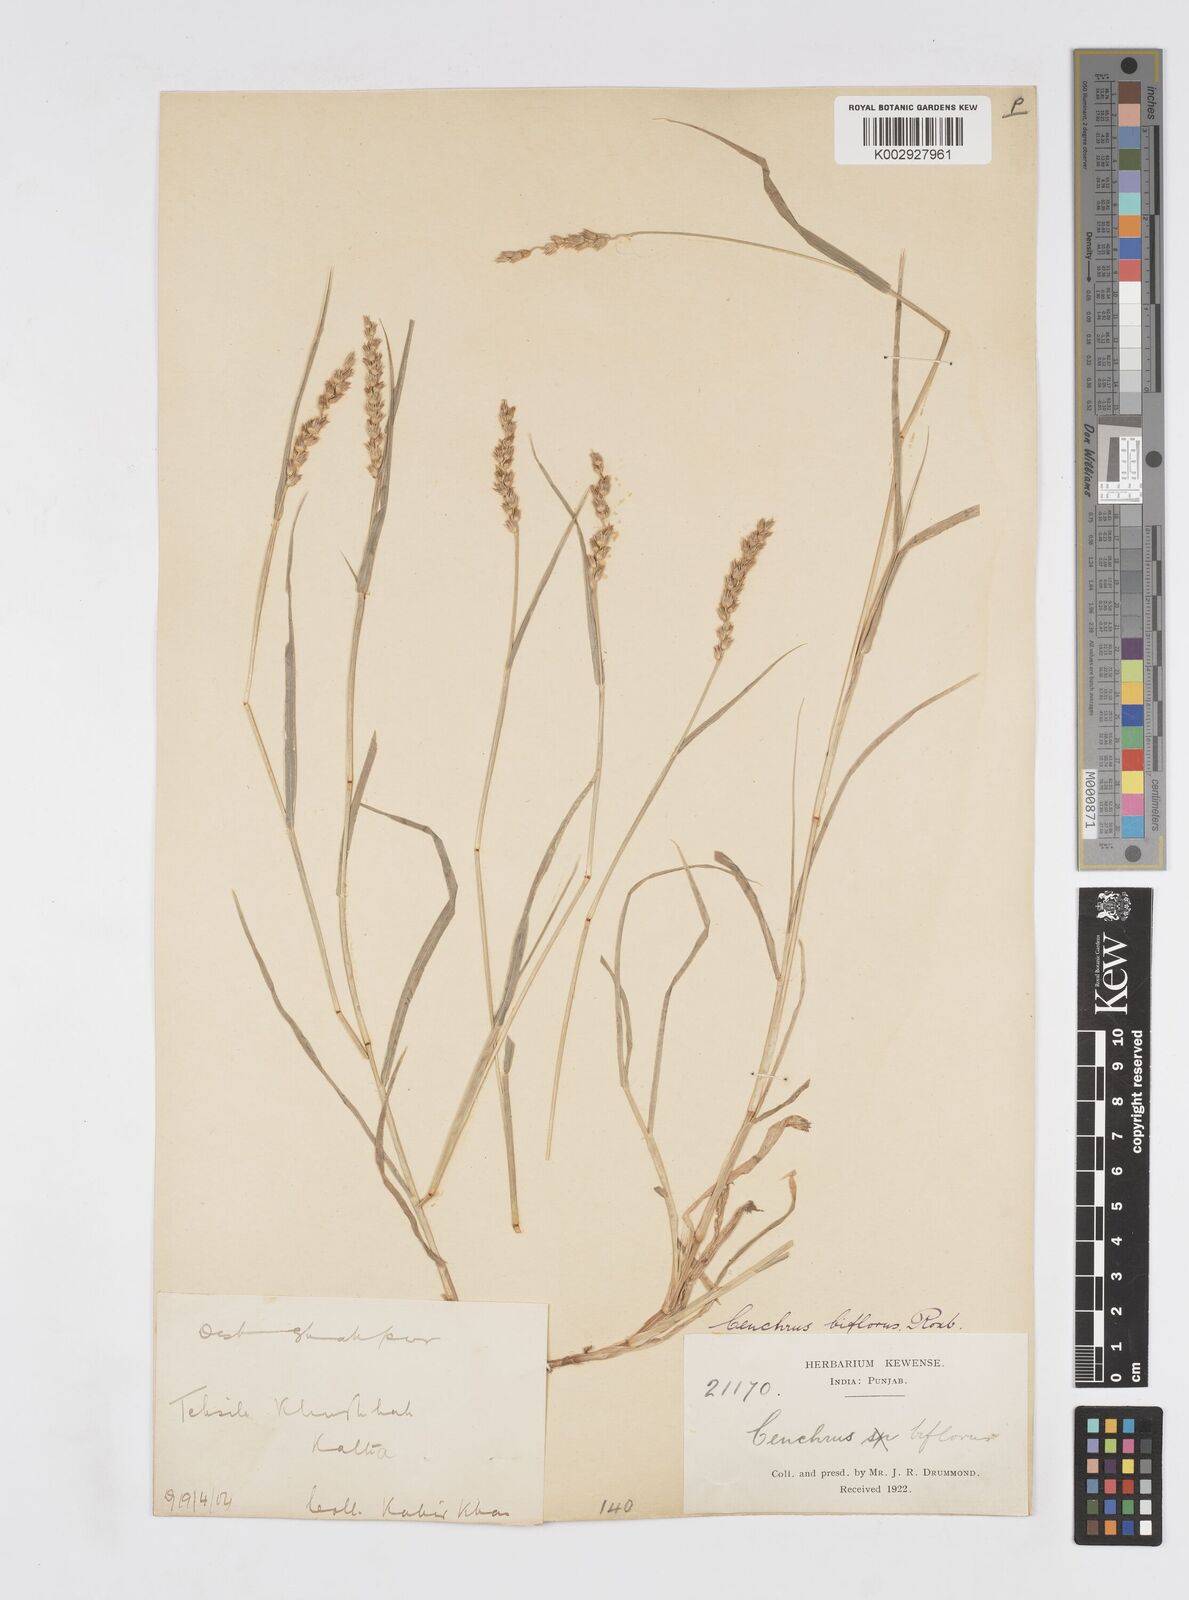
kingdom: Plantae
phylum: Tracheophyta
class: Liliopsida
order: Poales
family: Poaceae
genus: Cenchrus
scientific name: Cenchrus setigerus
